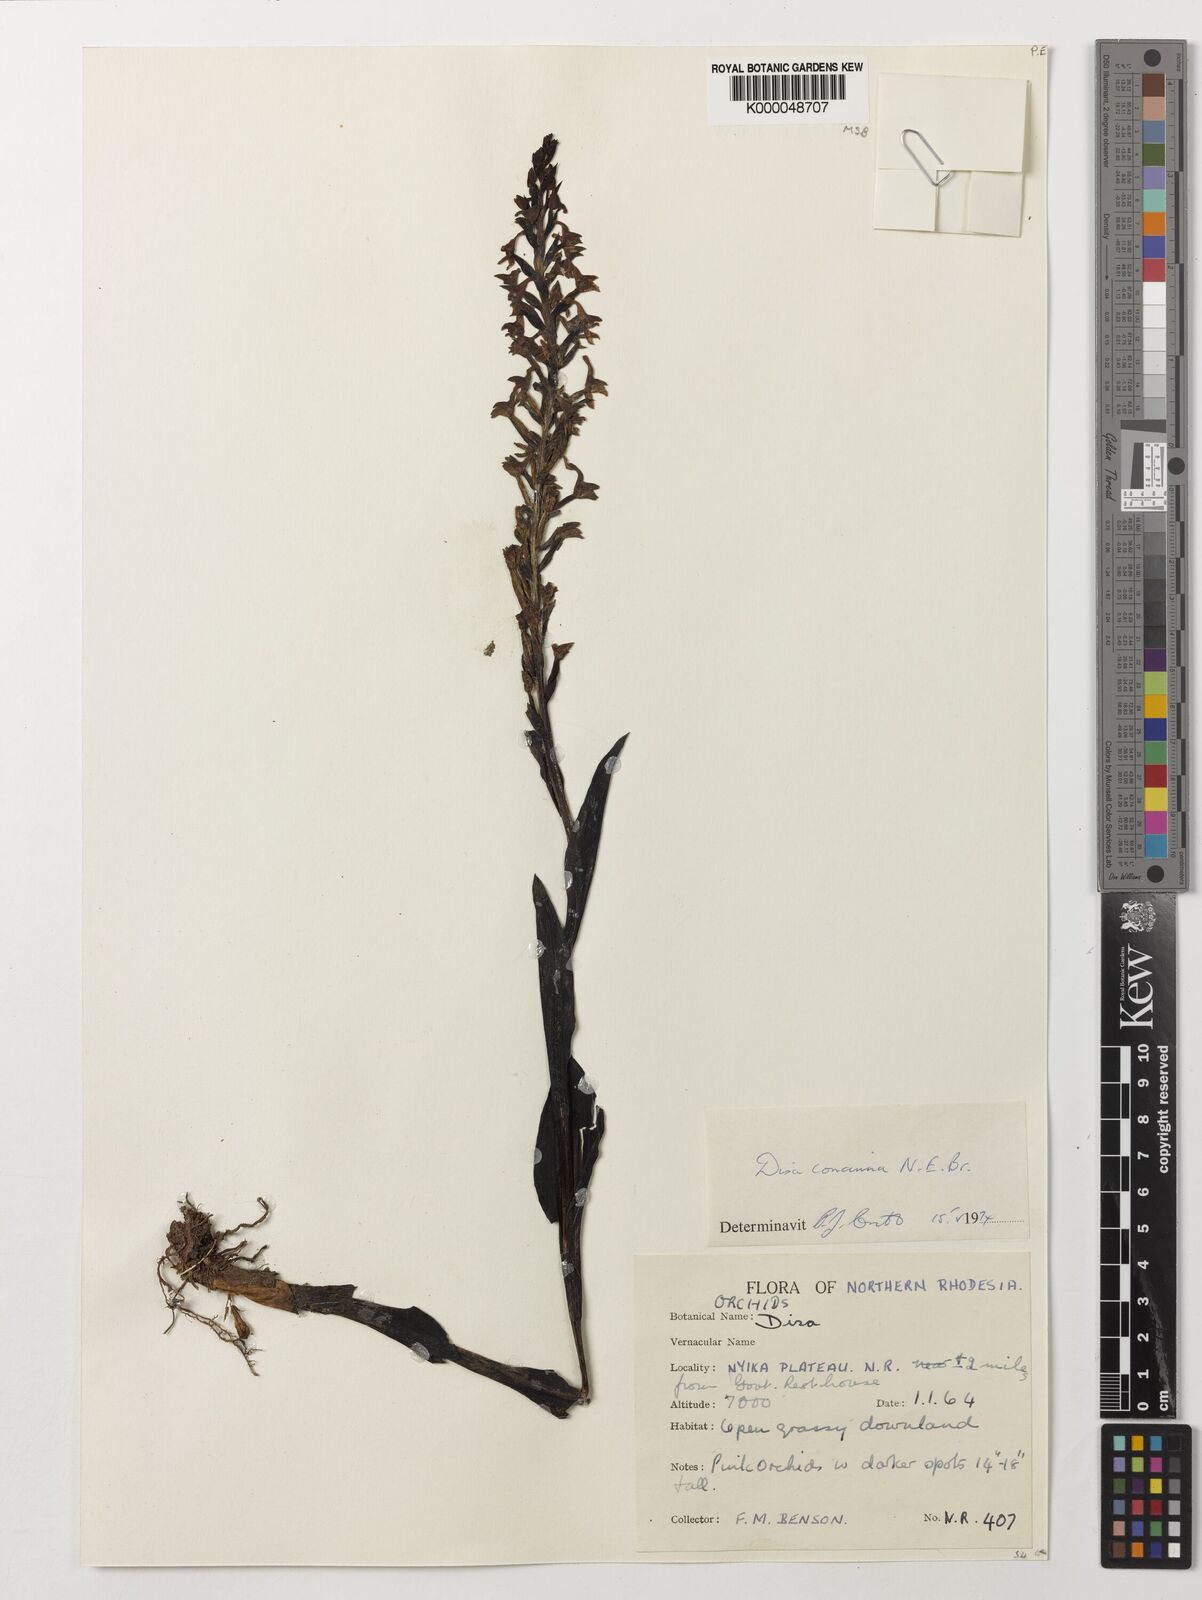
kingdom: Plantae
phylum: Tracheophyta
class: Liliopsida
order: Asparagales
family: Orchidaceae
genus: Disa
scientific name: Disa nyikensis
